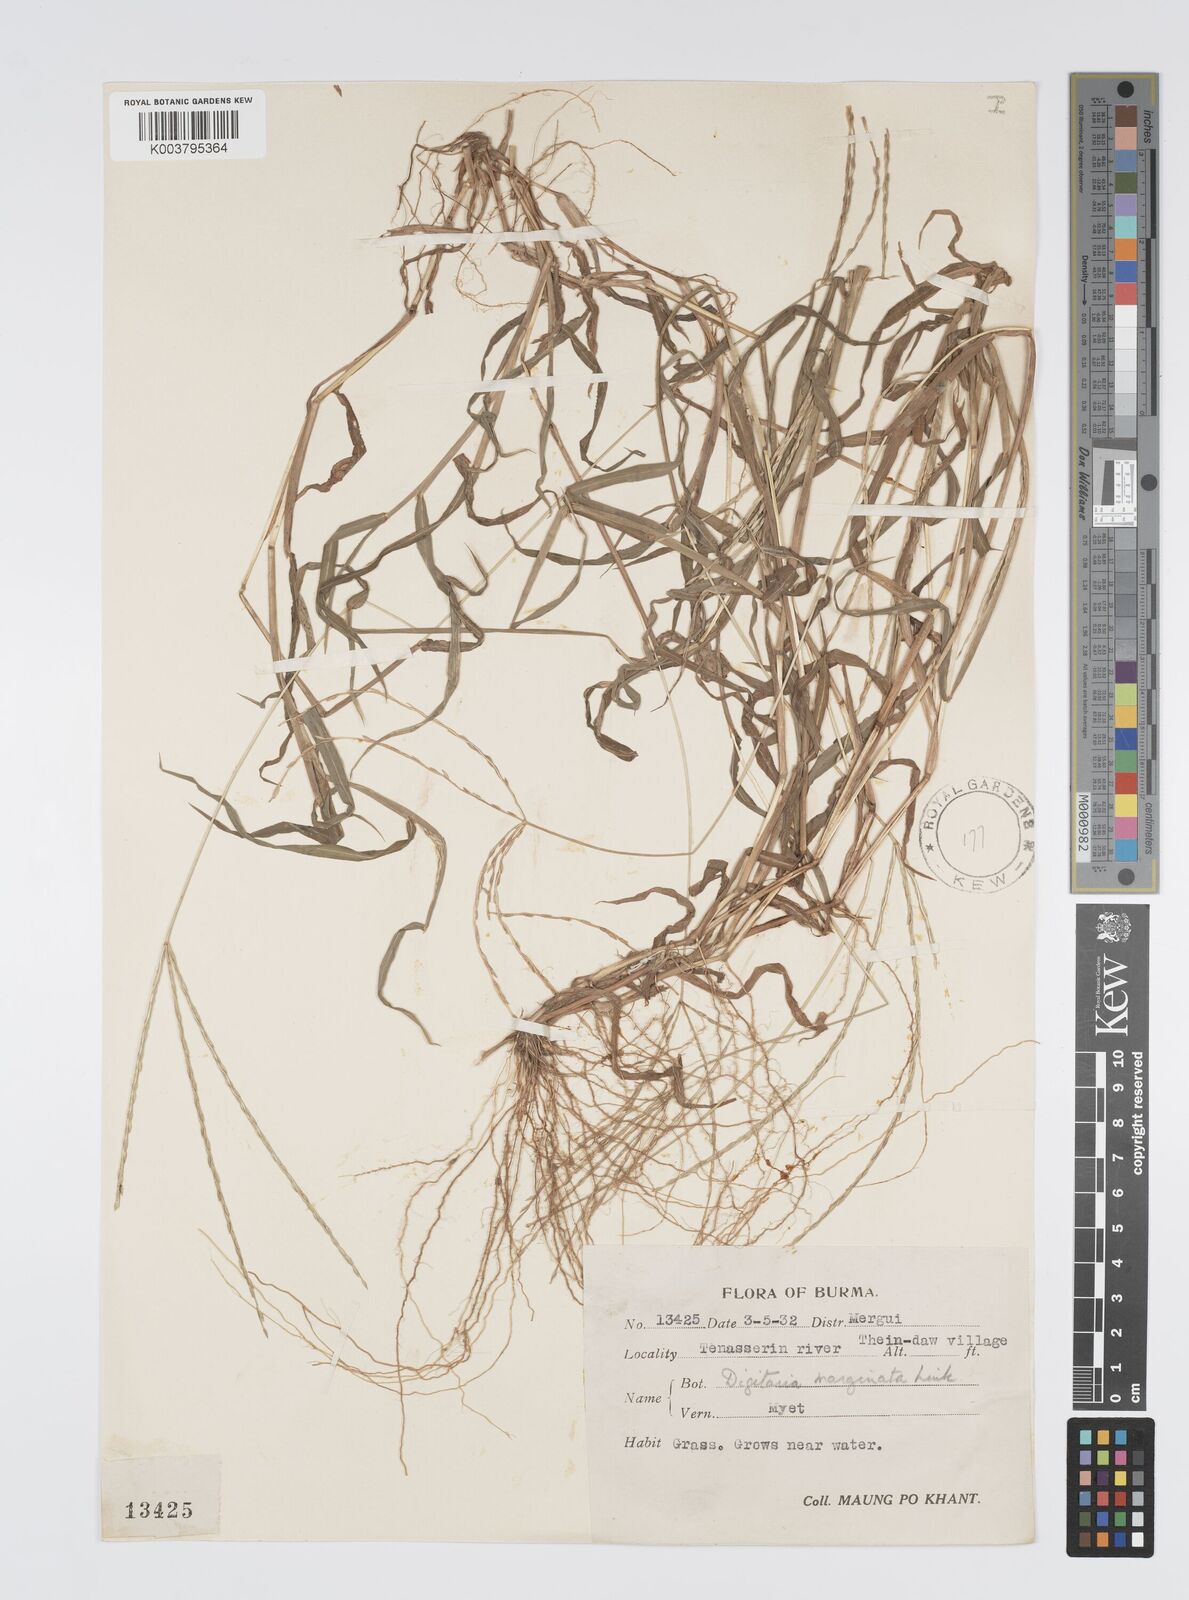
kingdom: Plantae
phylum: Tracheophyta
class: Liliopsida
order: Poales
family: Poaceae
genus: Digitaria
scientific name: Digitaria ciliaris
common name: Tropical finger-grass
